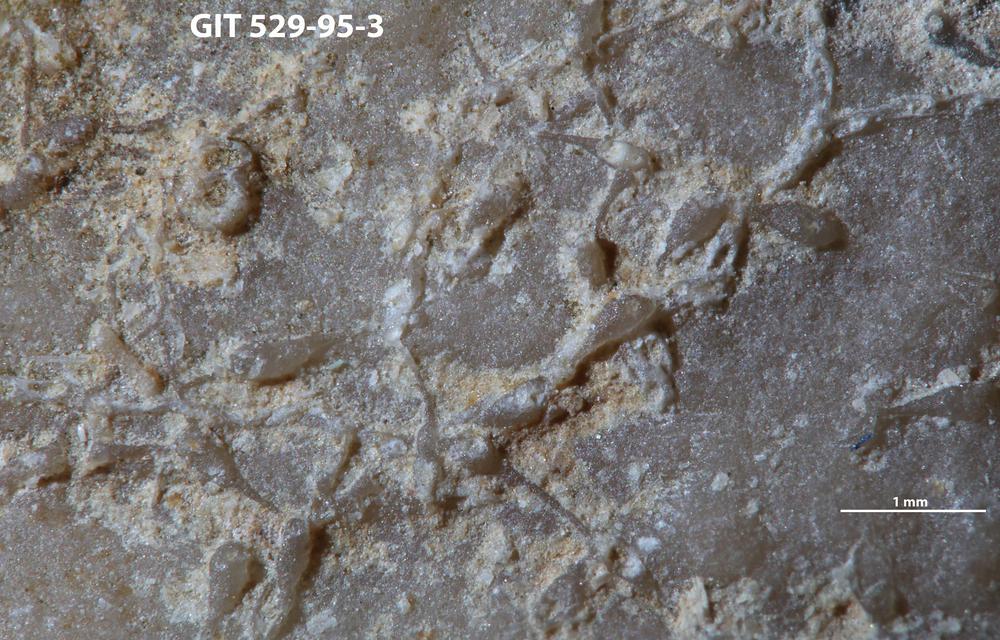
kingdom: Animalia
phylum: Bryozoa
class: Stenolaemata
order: Cyclostomatida
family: Corynotrypidae
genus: Corynotrypa
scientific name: Corynotrypa
